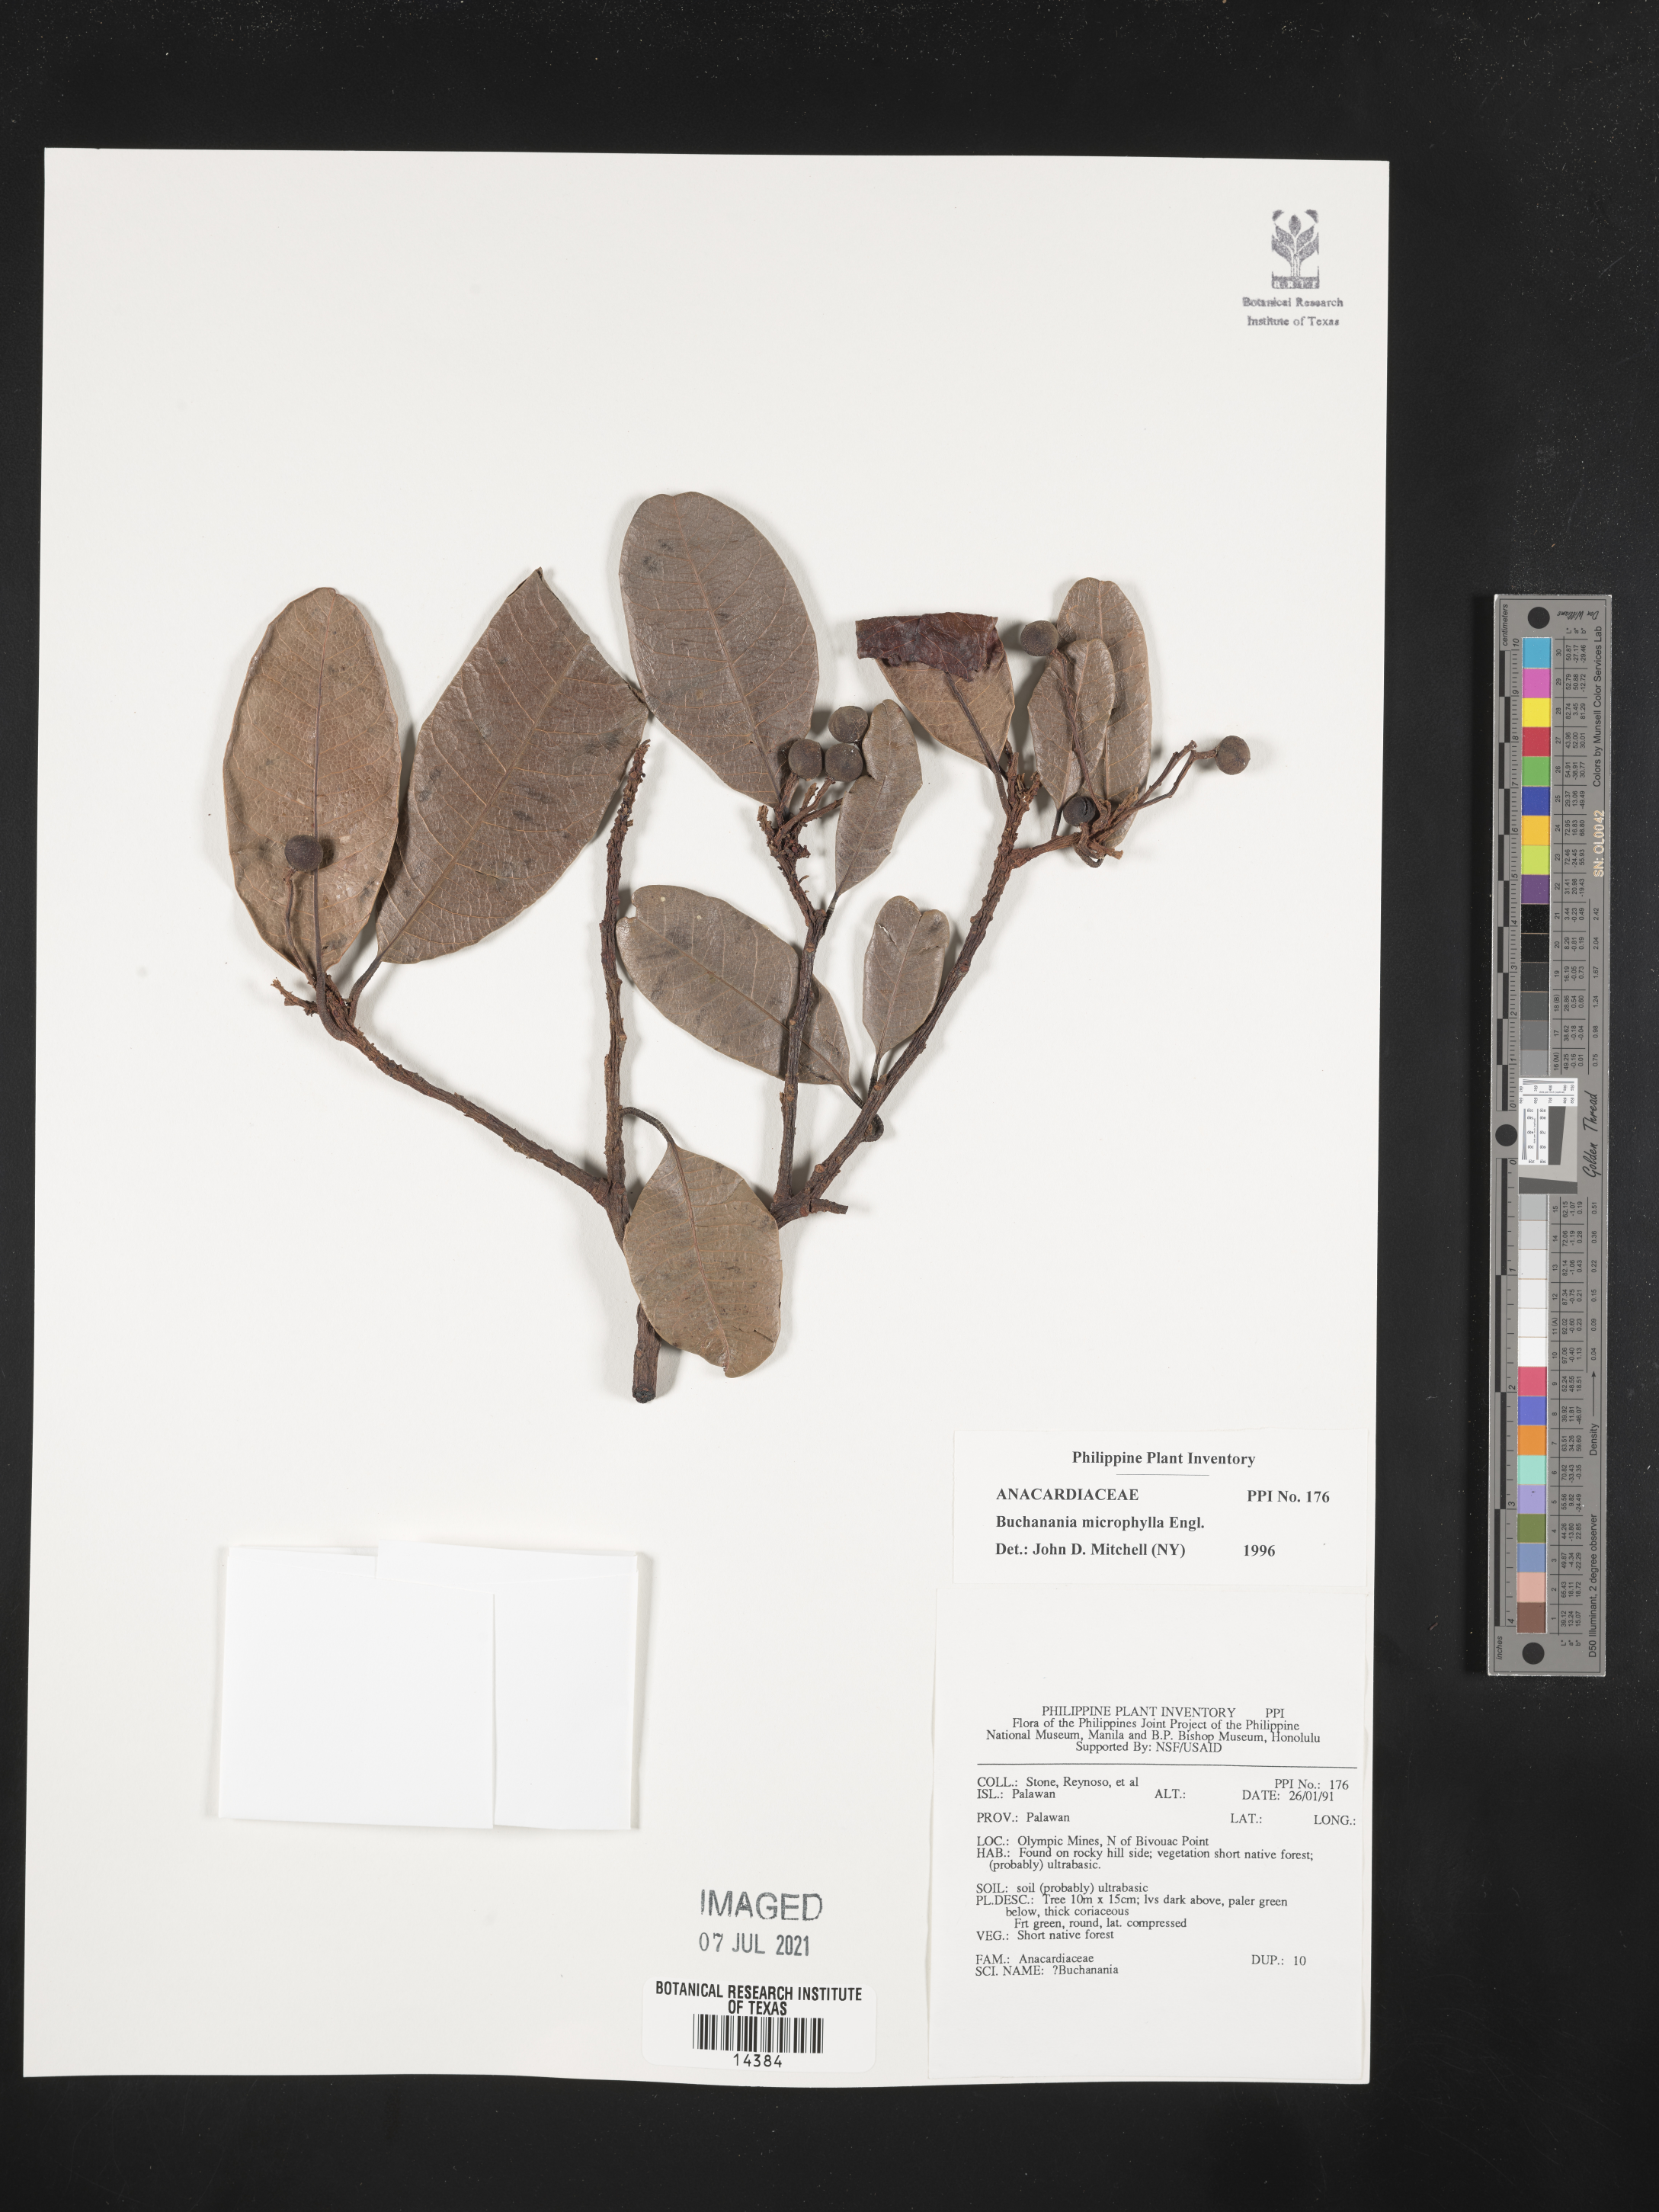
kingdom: Plantae
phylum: Tracheophyta
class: Magnoliopsida
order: Sapindales
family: Anacardiaceae
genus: Buchanania
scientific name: Buchanania microphylla
